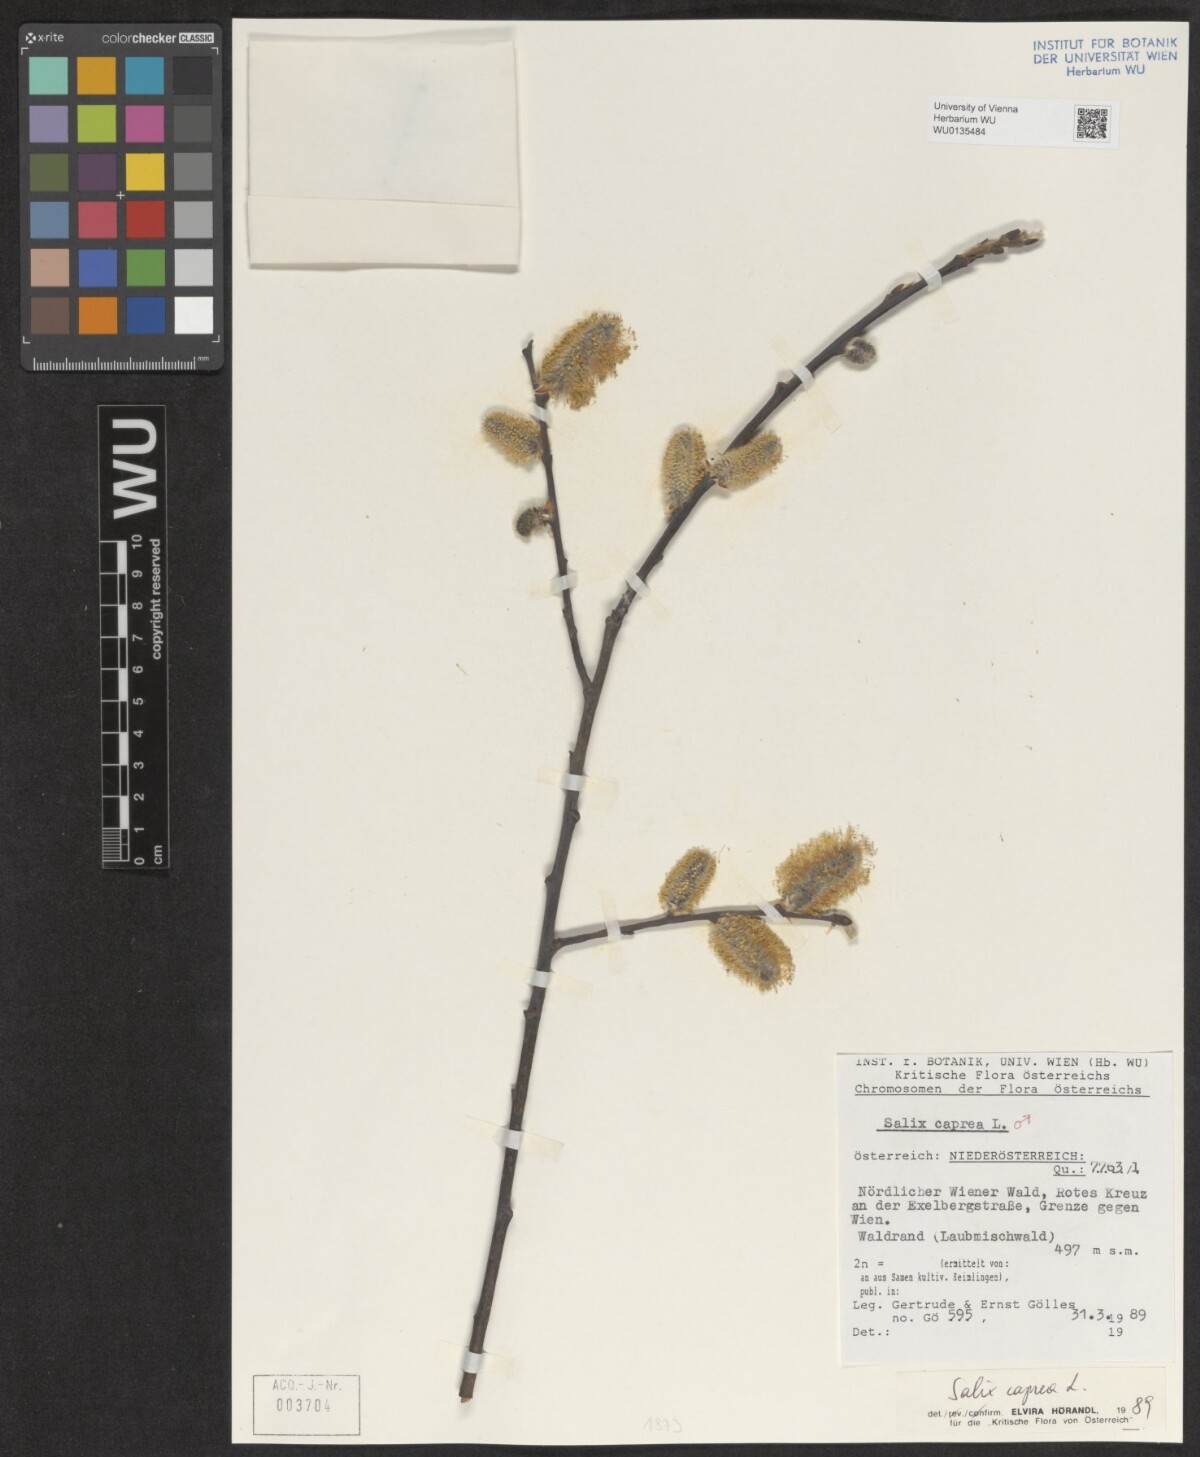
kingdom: Plantae
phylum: Tracheophyta
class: Magnoliopsida
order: Malpighiales
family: Salicaceae
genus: Salix
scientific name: Salix caprea
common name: Goat willow
